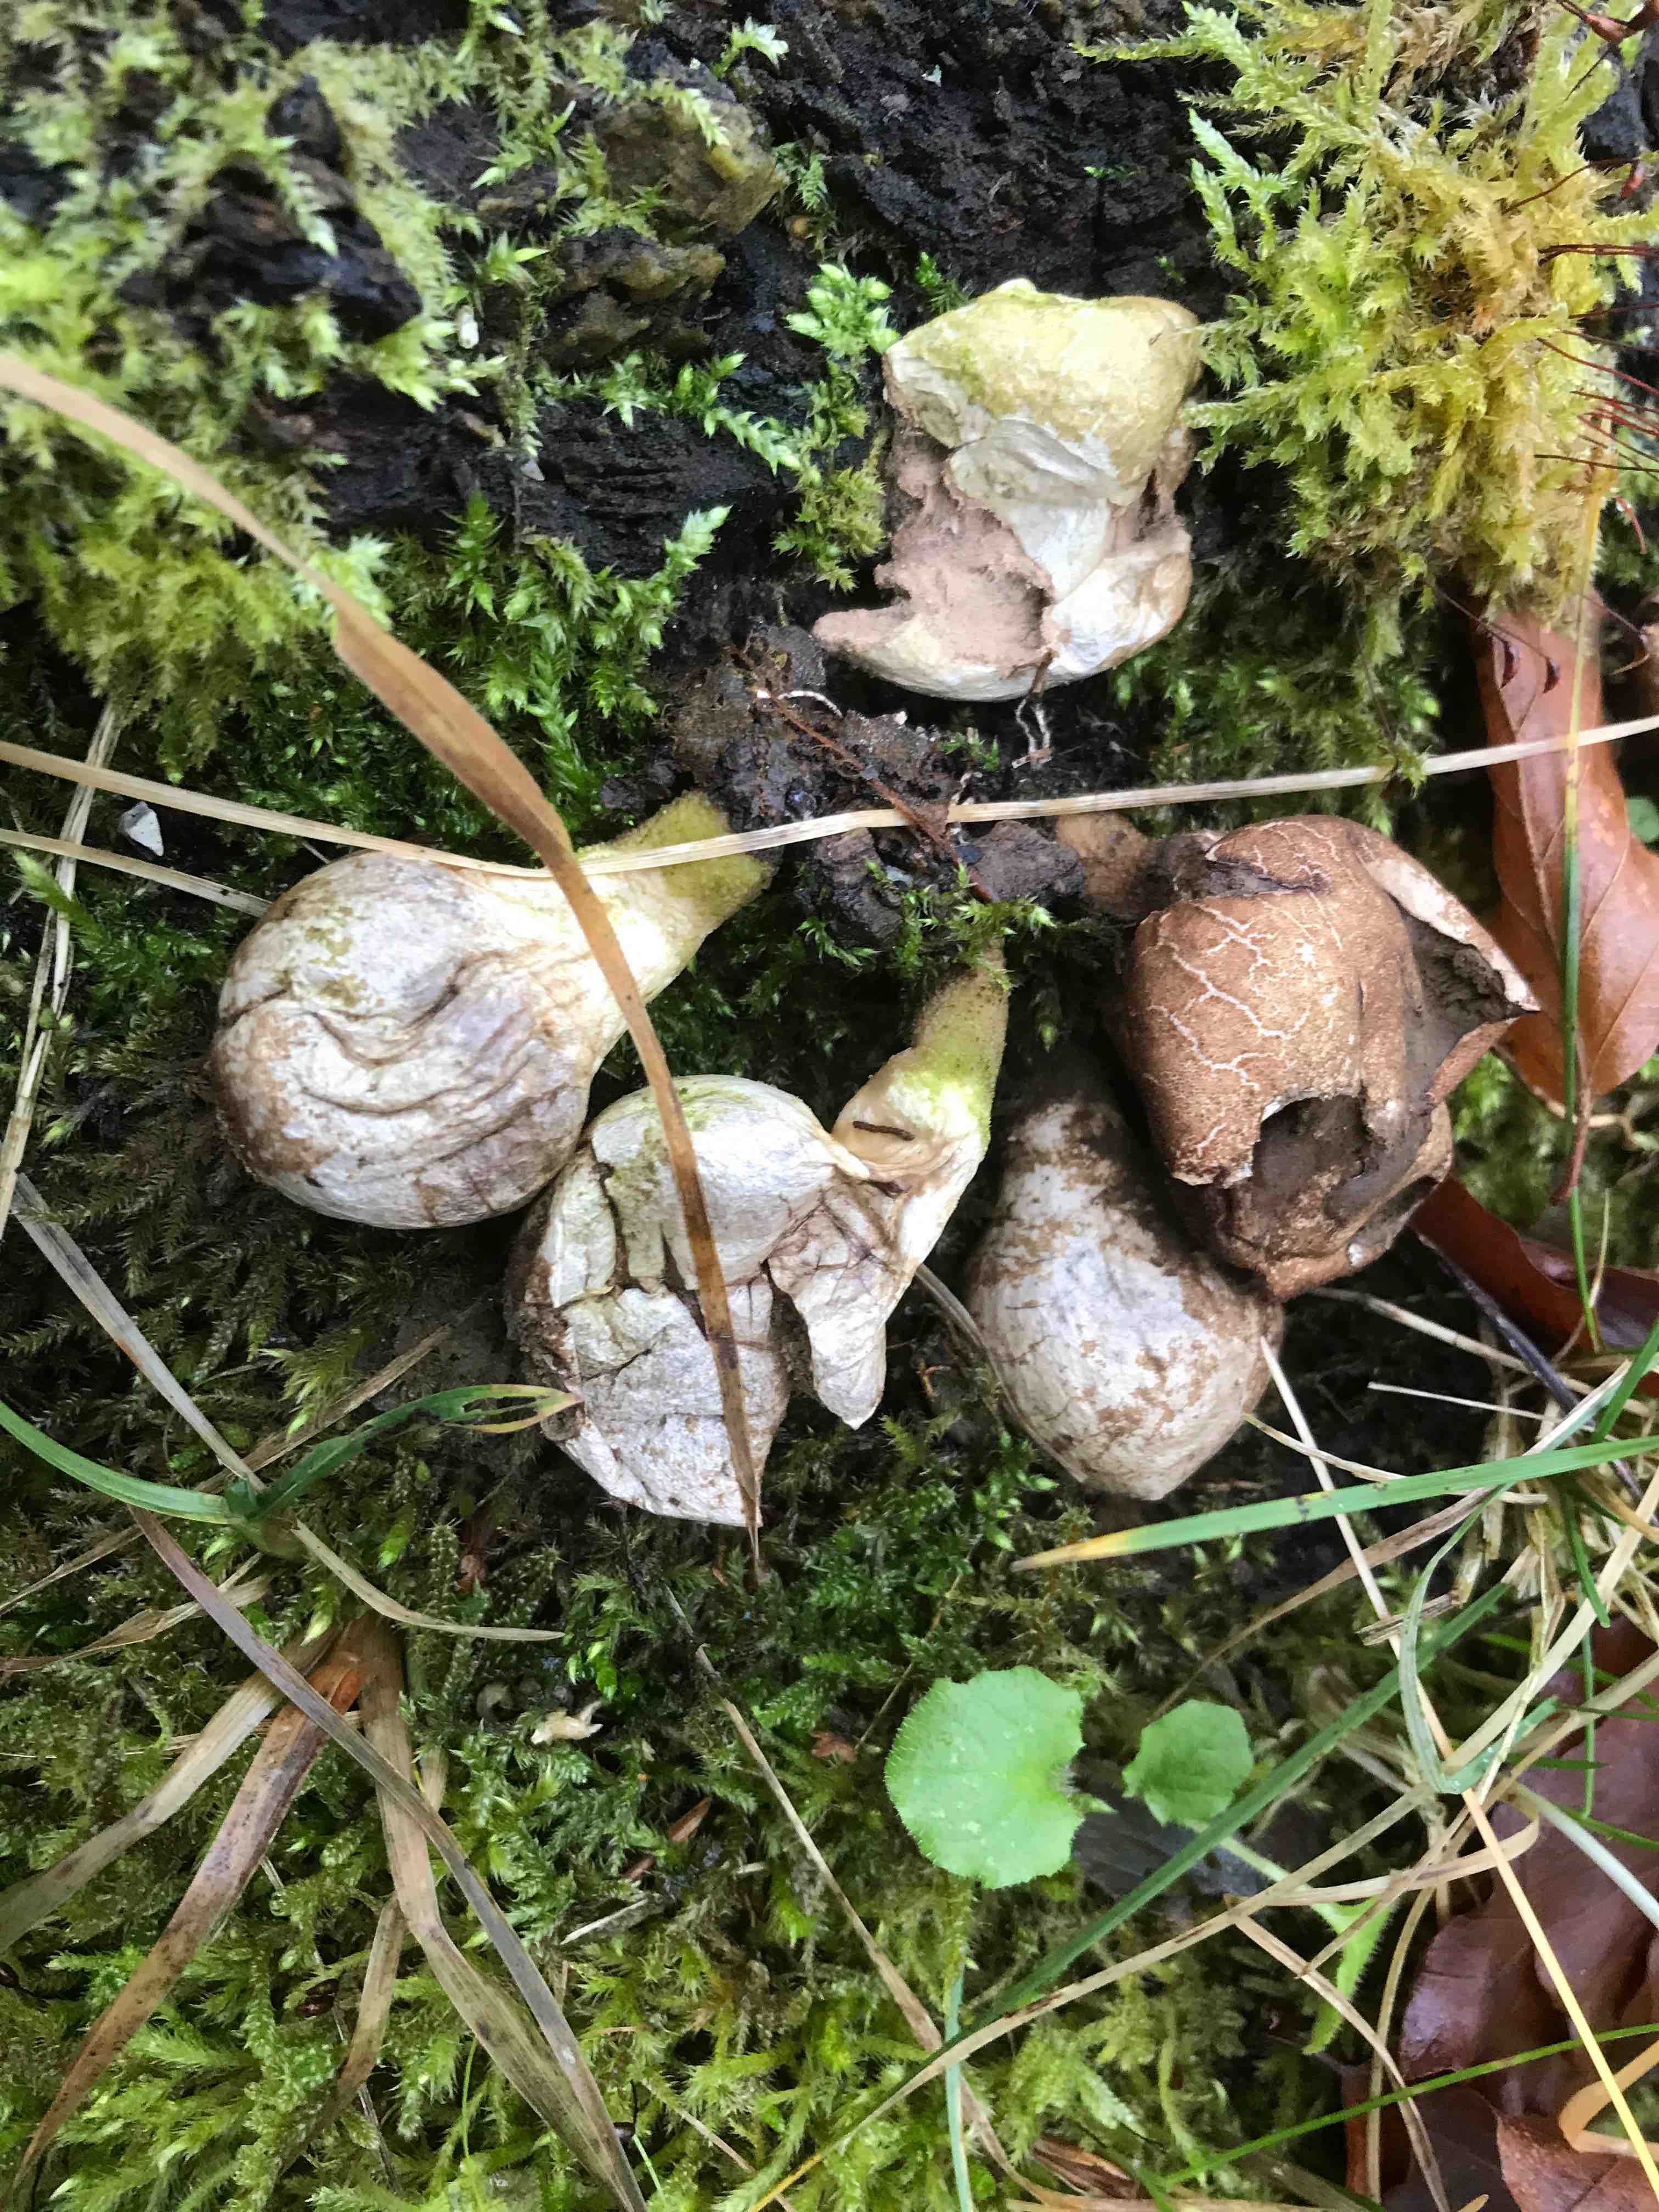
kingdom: Fungi
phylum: Basidiomycota
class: Agaricomycetes
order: Agaricales
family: Lycoperdaceae
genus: Apioperdon
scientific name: Apioperdon pyriforme
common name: pære-støvbold
